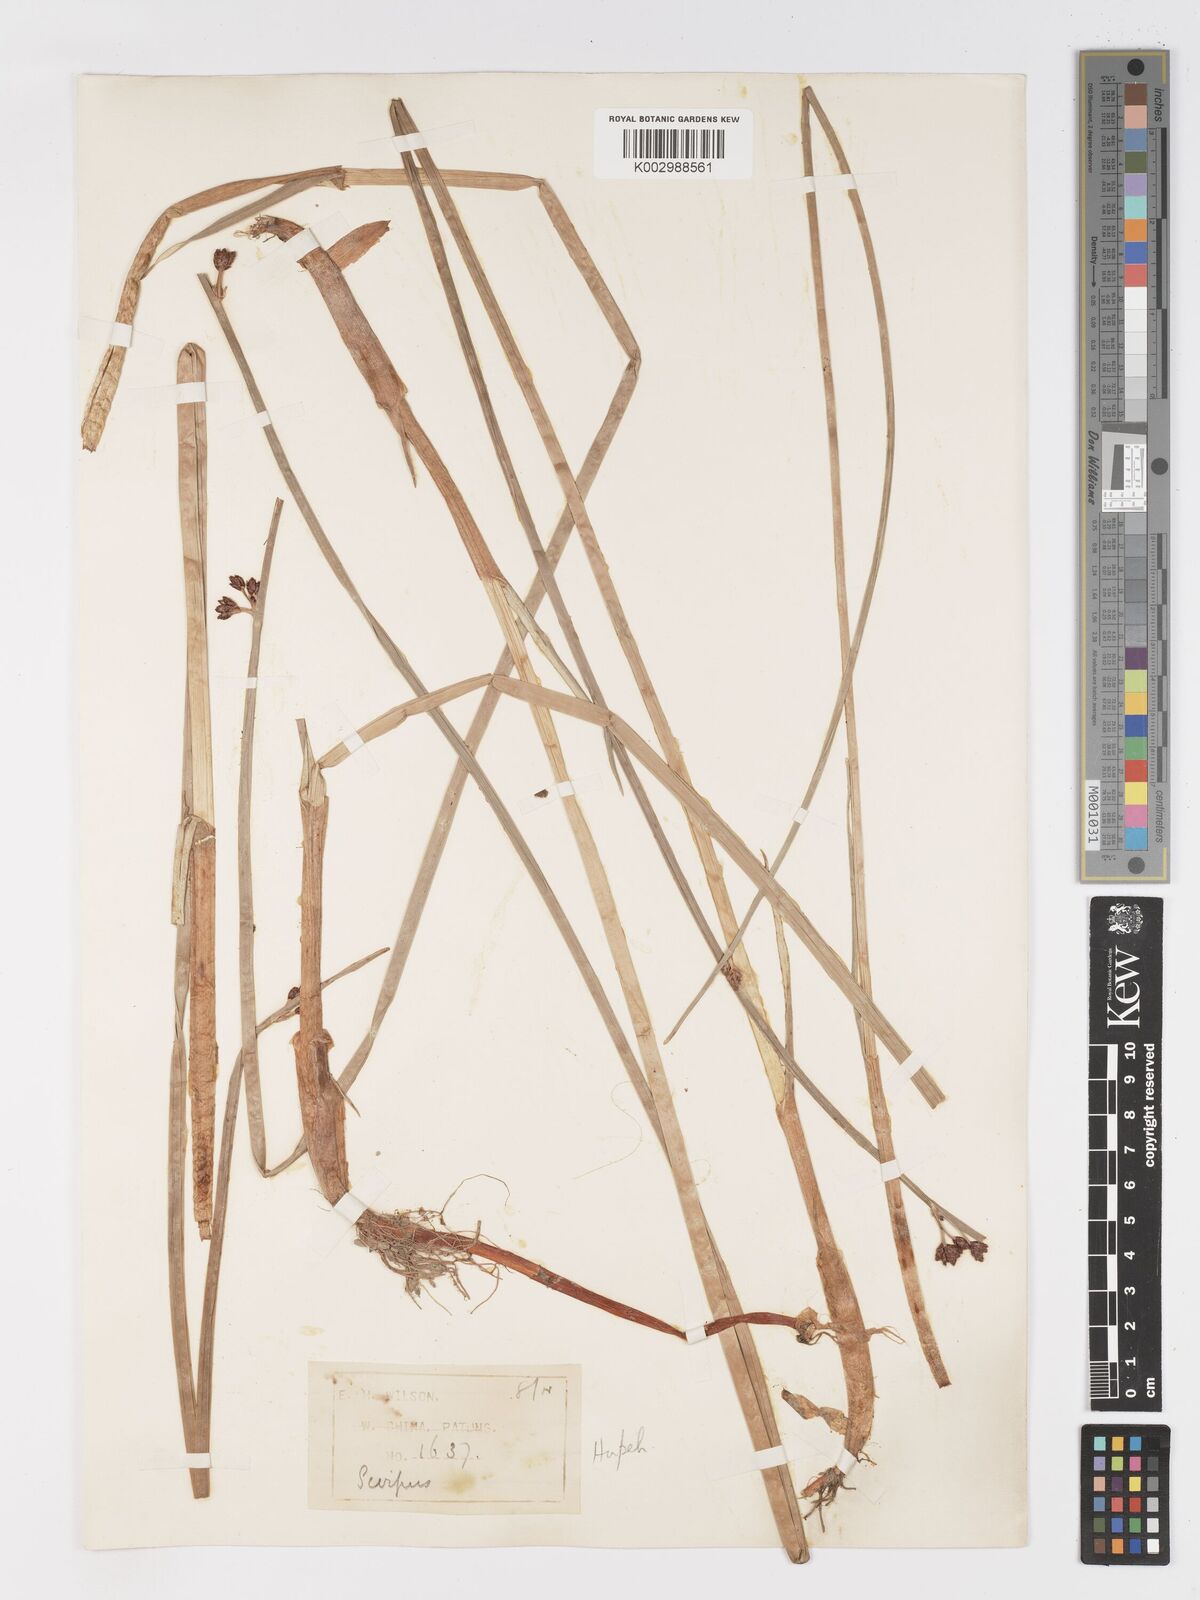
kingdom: Plantae
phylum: Tracheophyta
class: Liliopsida
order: Poales
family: Cyperaceae
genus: Schoenoplectus
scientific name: Schoenoplectus
